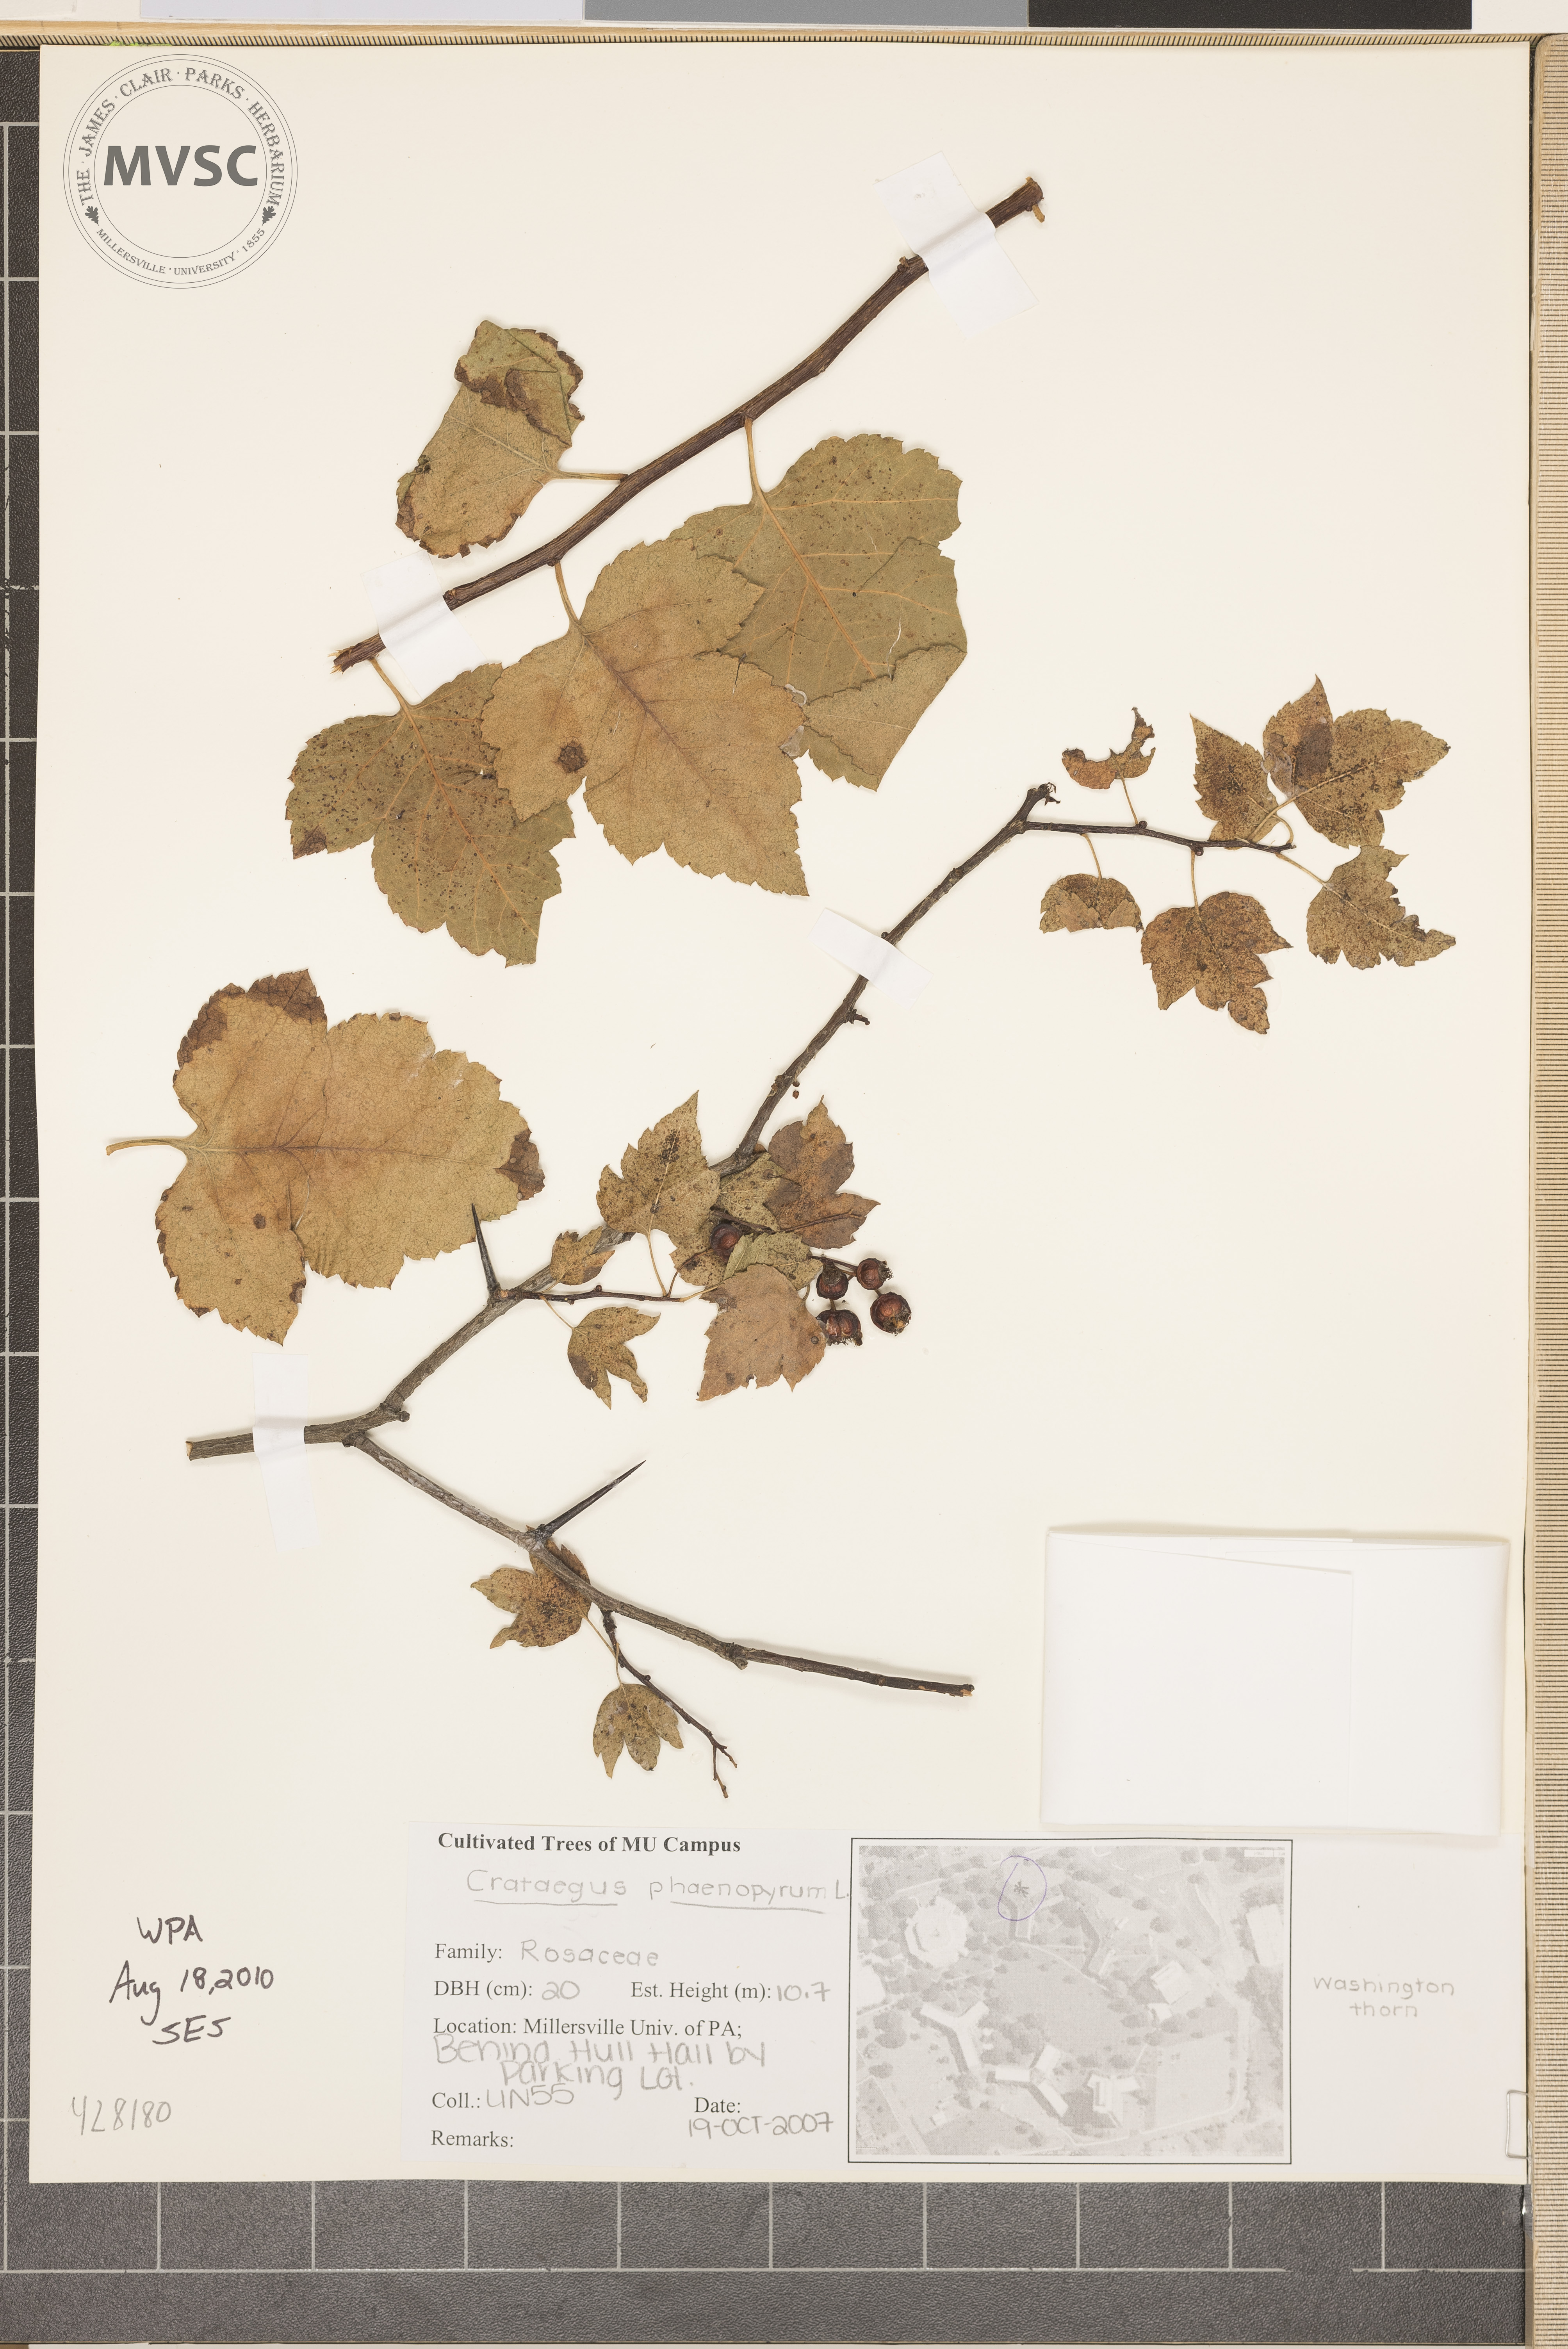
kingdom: Plantae
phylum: Tracheophyta
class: Magnoliopsida
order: Rosales
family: Rosaceae
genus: Crataegus
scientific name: Crataegus phaenopyrum
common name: Hawthorn
